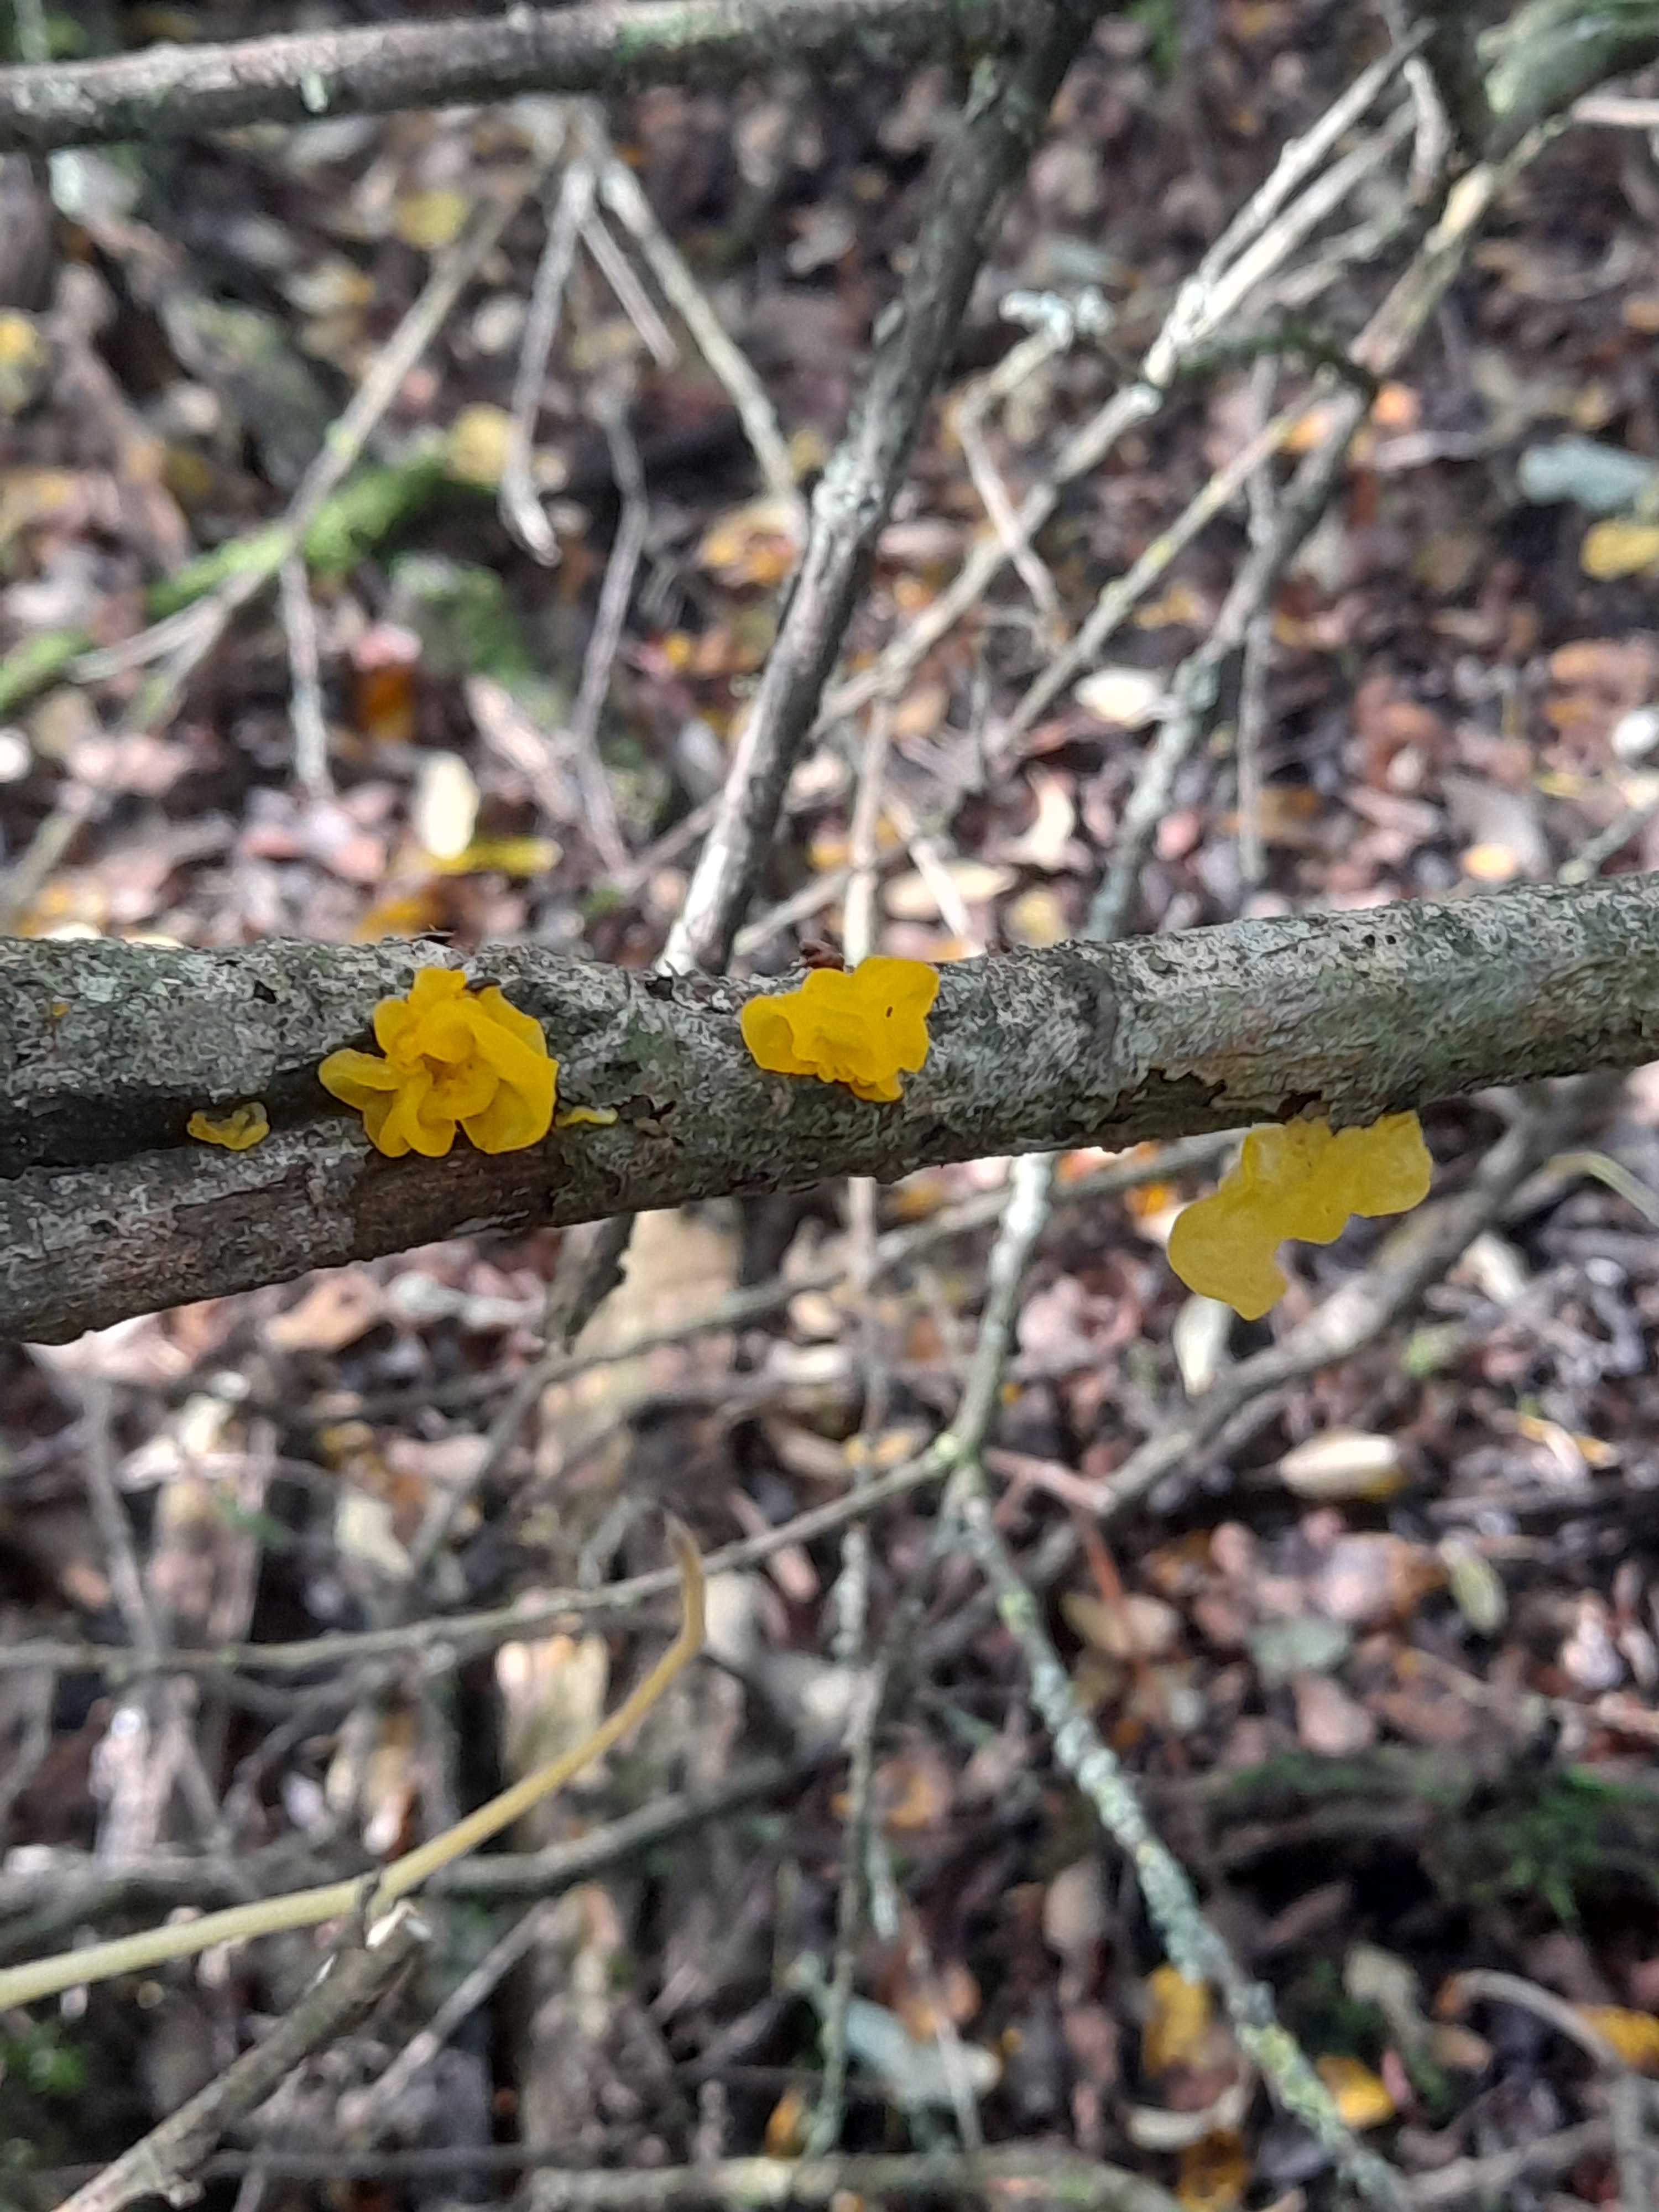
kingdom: Fungi
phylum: Basidiomycota
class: Tremellomycetes
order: Tremellales
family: Tremellaceae
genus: Tremella
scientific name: Tremella mesenterica
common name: gul bævresvamp
